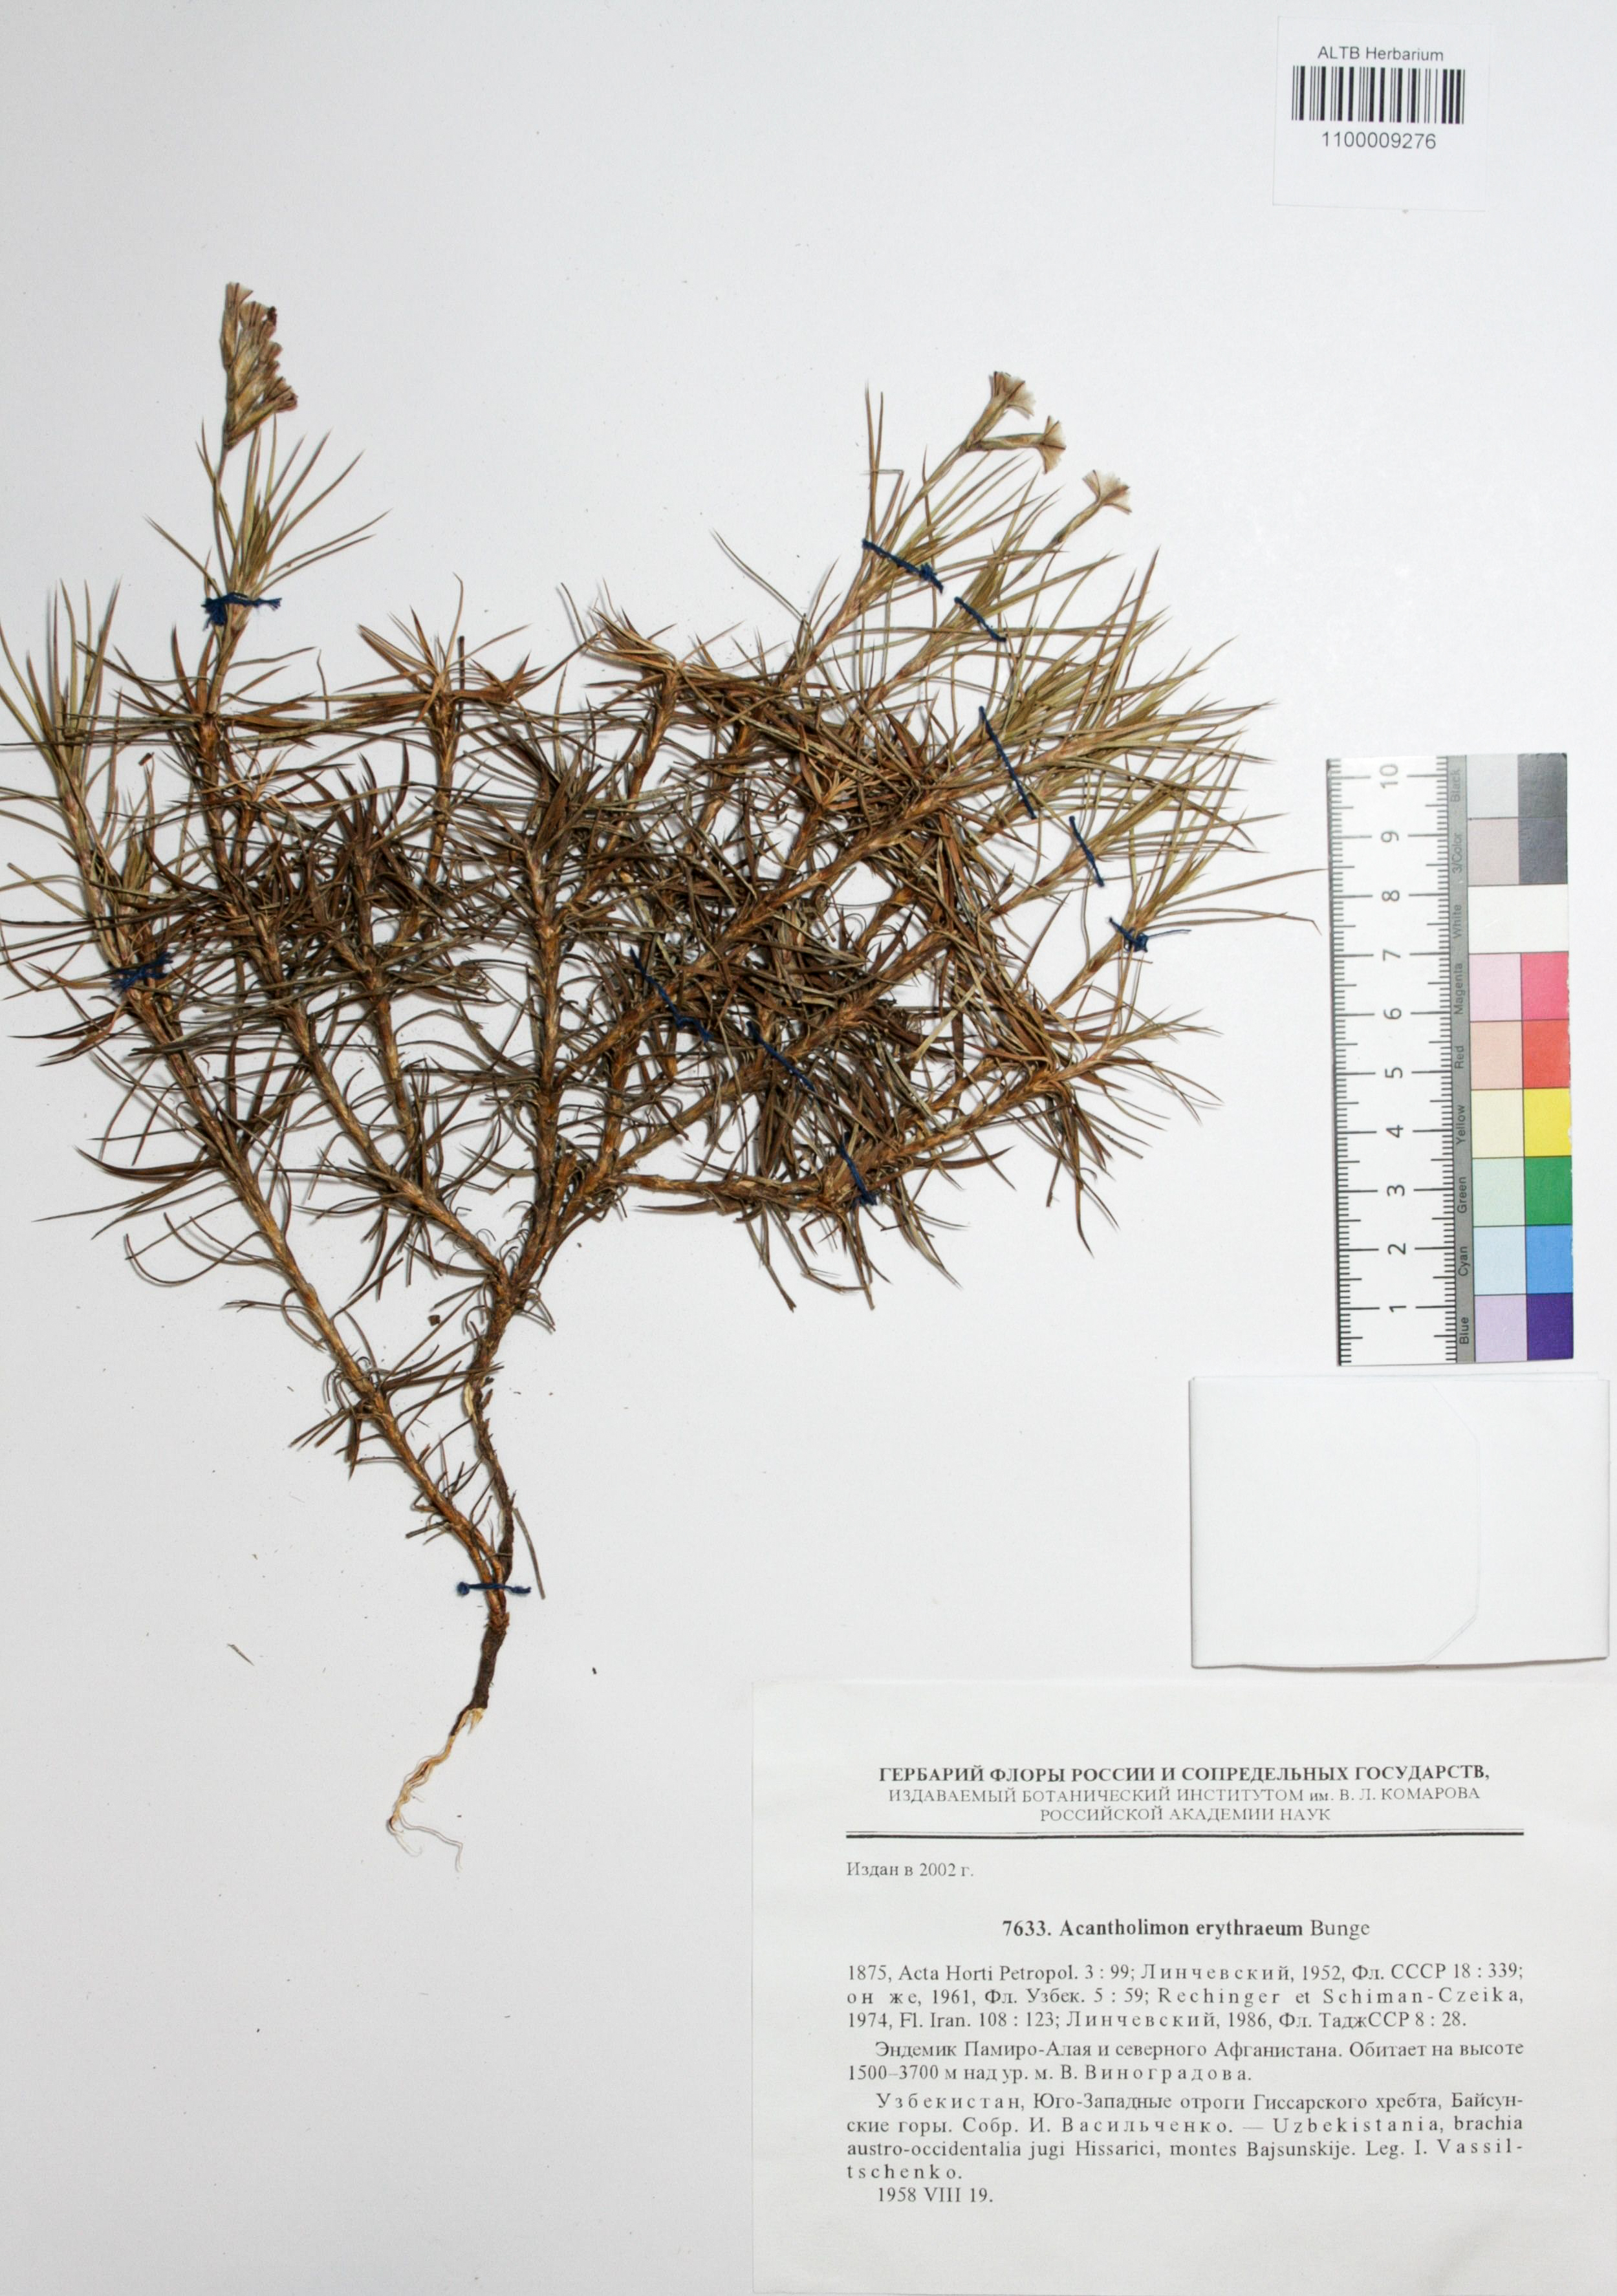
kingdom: Plantae
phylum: Tracheophyta
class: Magnoliopsida
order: Caryophyllales
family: Plumbaginaceae
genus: Acantholimon
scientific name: Acantholimon erythraeum
